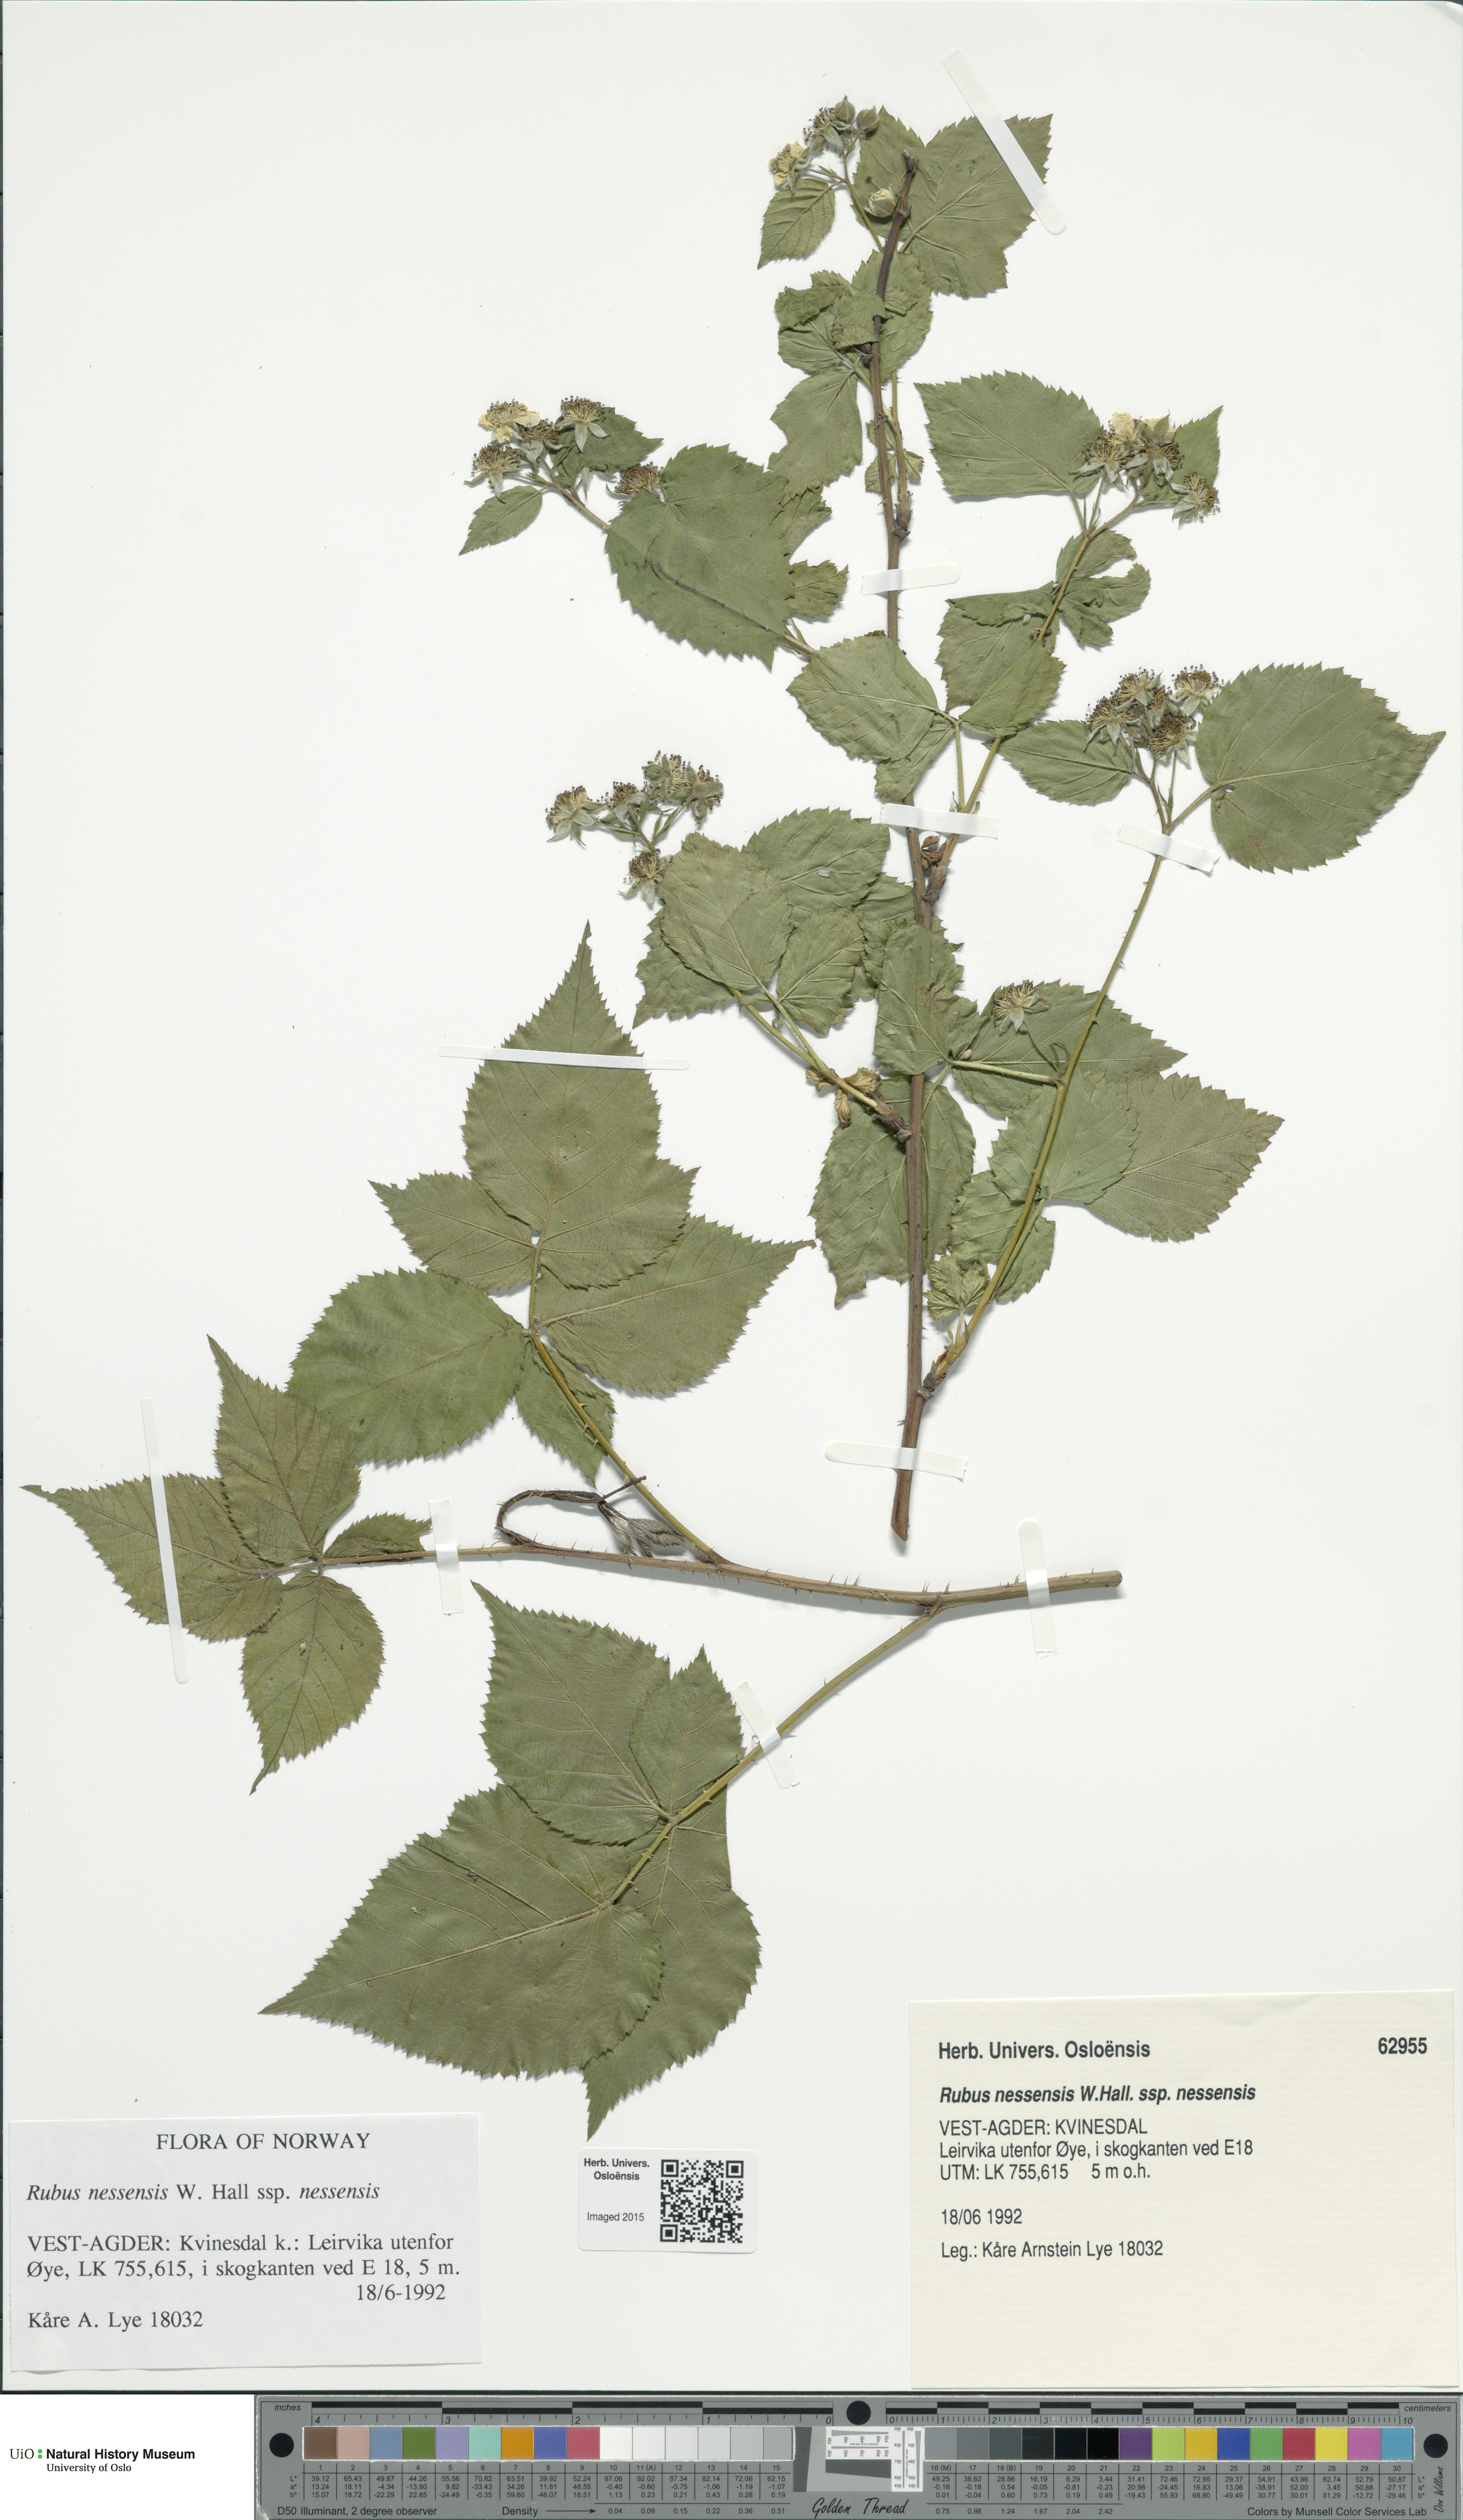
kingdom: Plantae
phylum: Tracheophyta
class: Magnoliopsida
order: Rosales
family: Rosaceae
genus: Rubus
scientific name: Rubus polonicus
